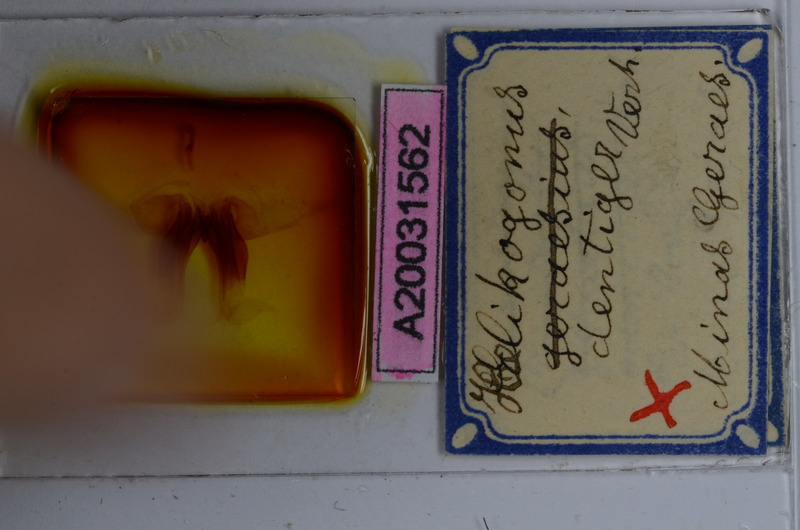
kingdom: Animalia
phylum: Arthropoda
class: Diplopoda
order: Spirostreptida
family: Spirostreptidae
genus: Helicogonus
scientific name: Helicogonus dentiger
